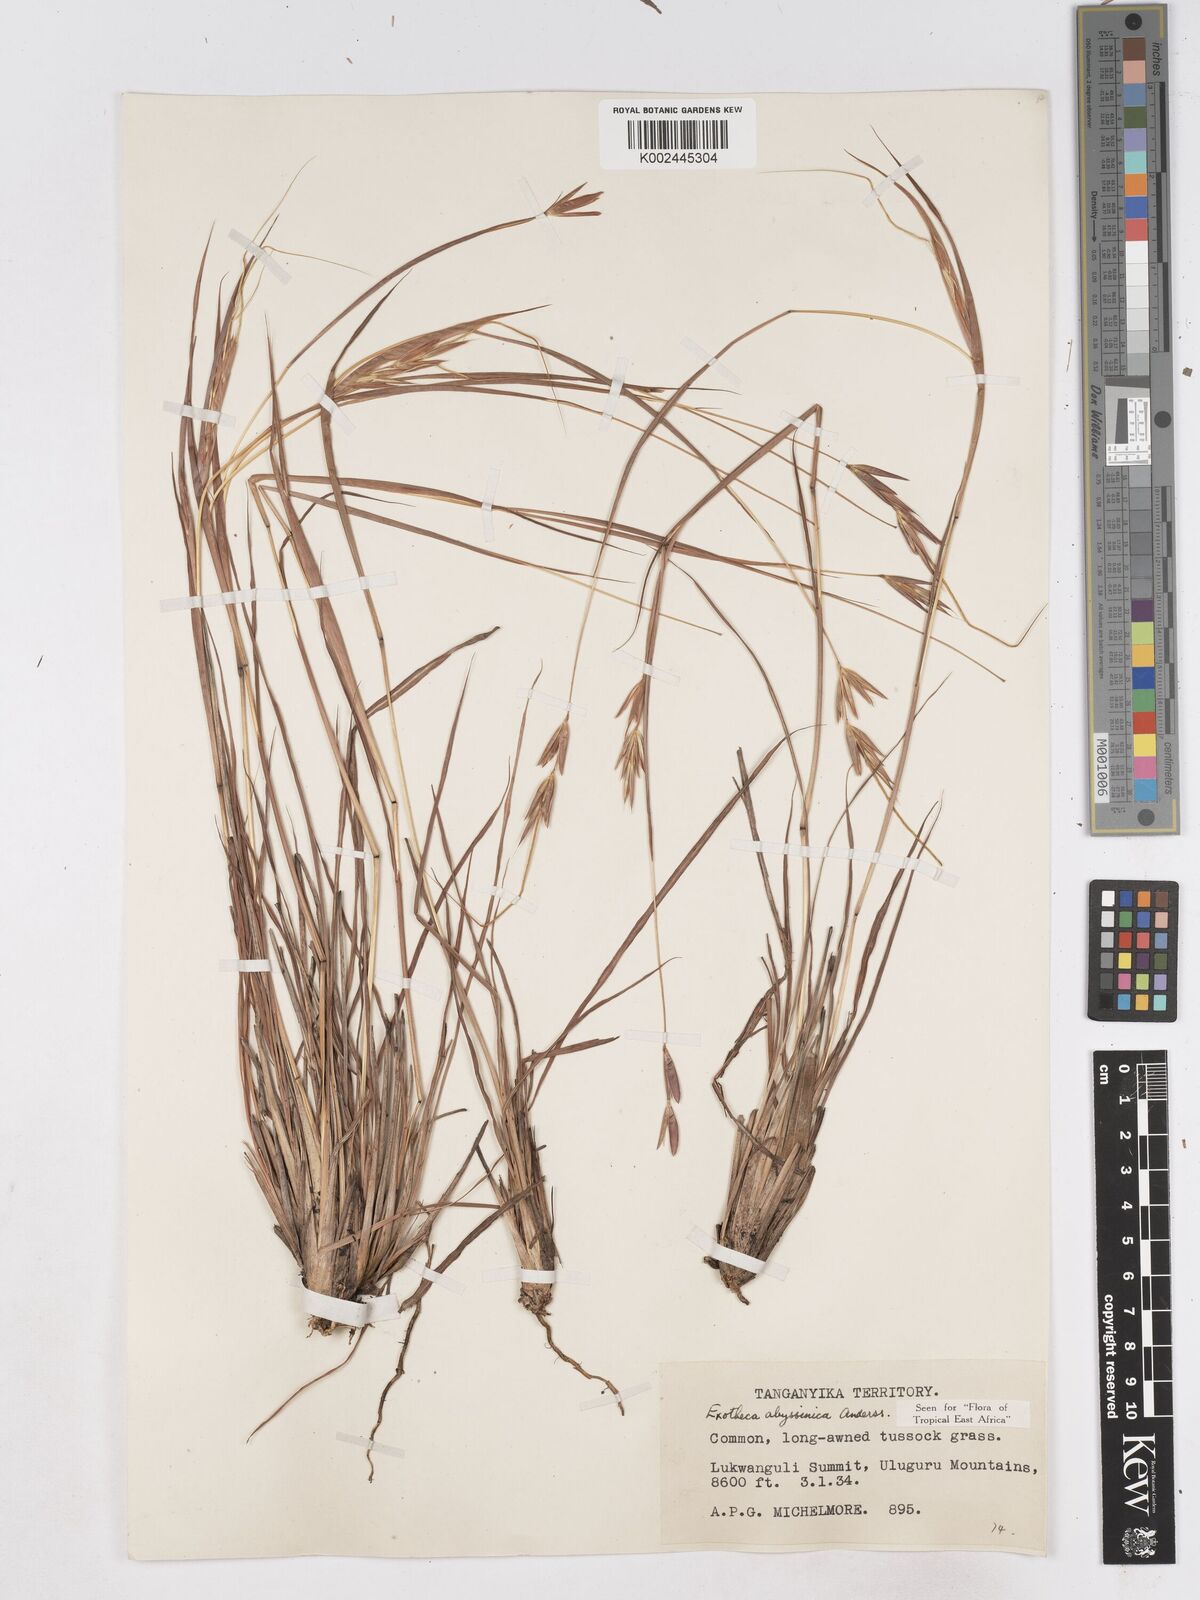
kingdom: Plantae
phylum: Tracheophyta
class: Liliopsida
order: Poales
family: Poaceae
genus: Exotheca
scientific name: Exotheca abyssinica
